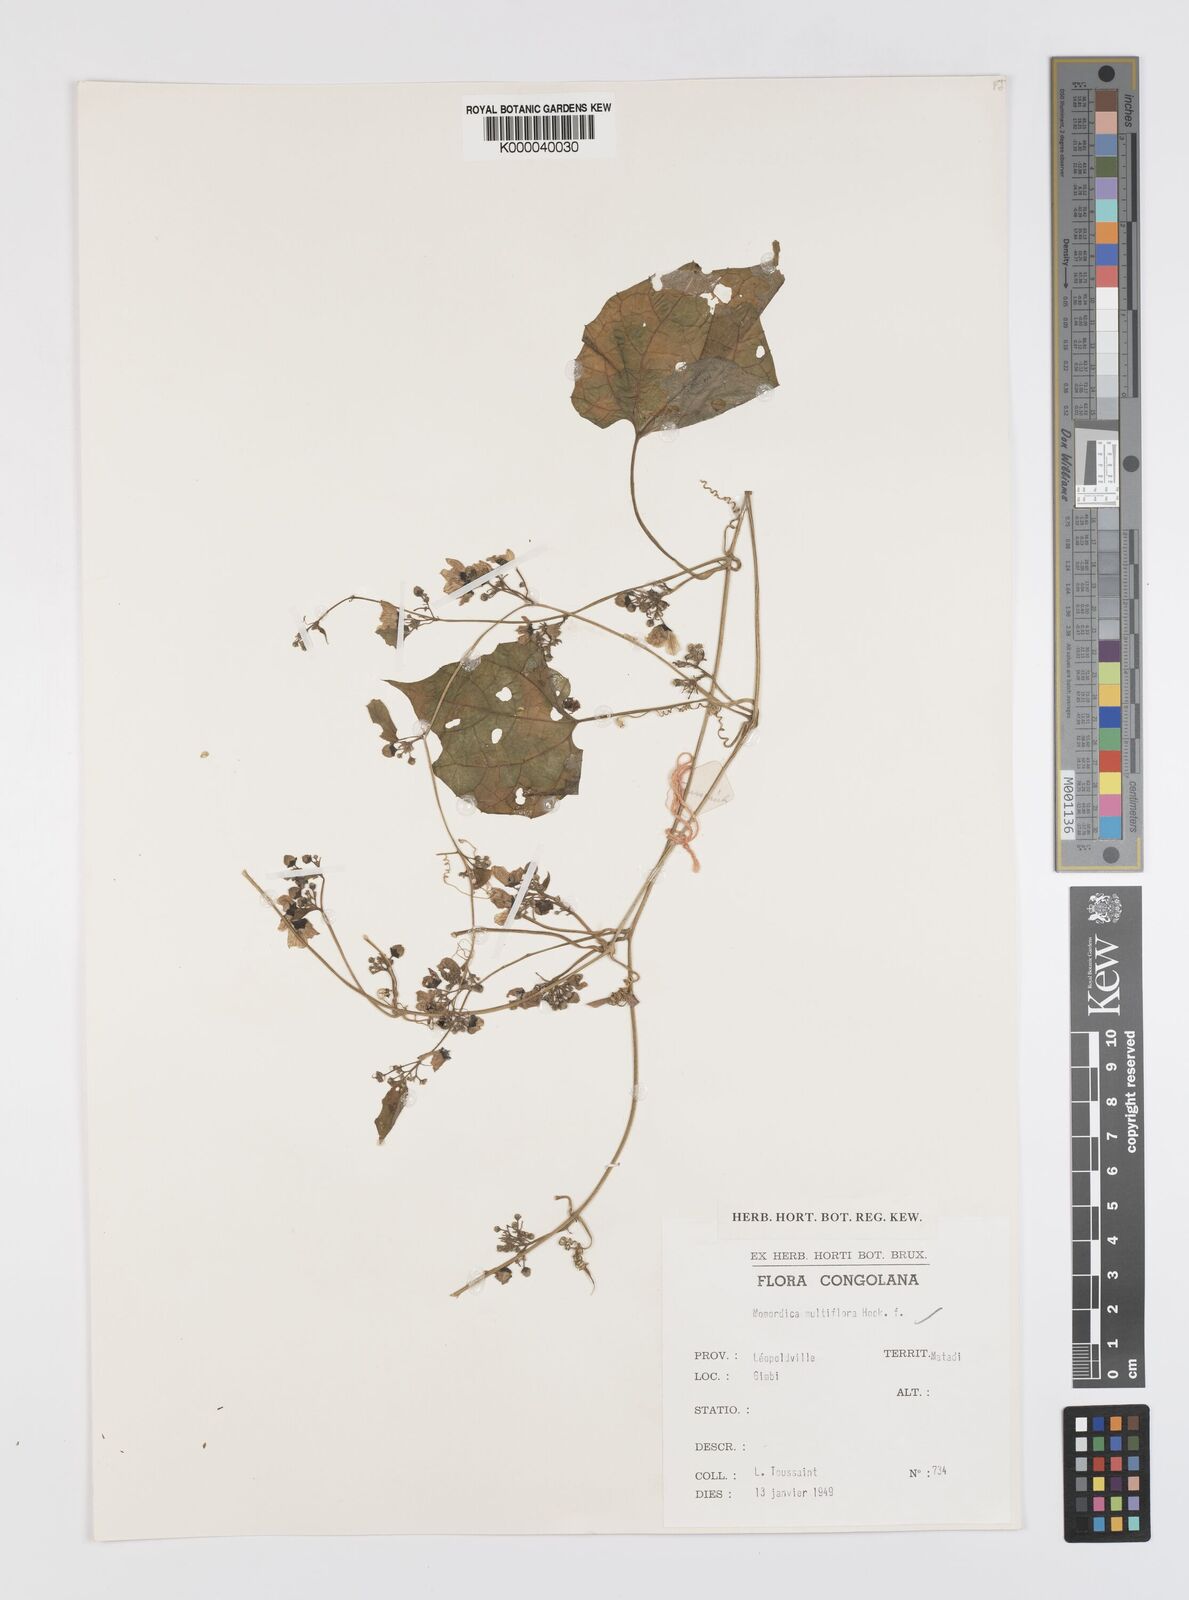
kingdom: Plantae
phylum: Tracheophyta
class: Magnoliopsida
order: Cucurbitales
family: Cucurbitaceae
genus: Momordica
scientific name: Momordica multiflora
